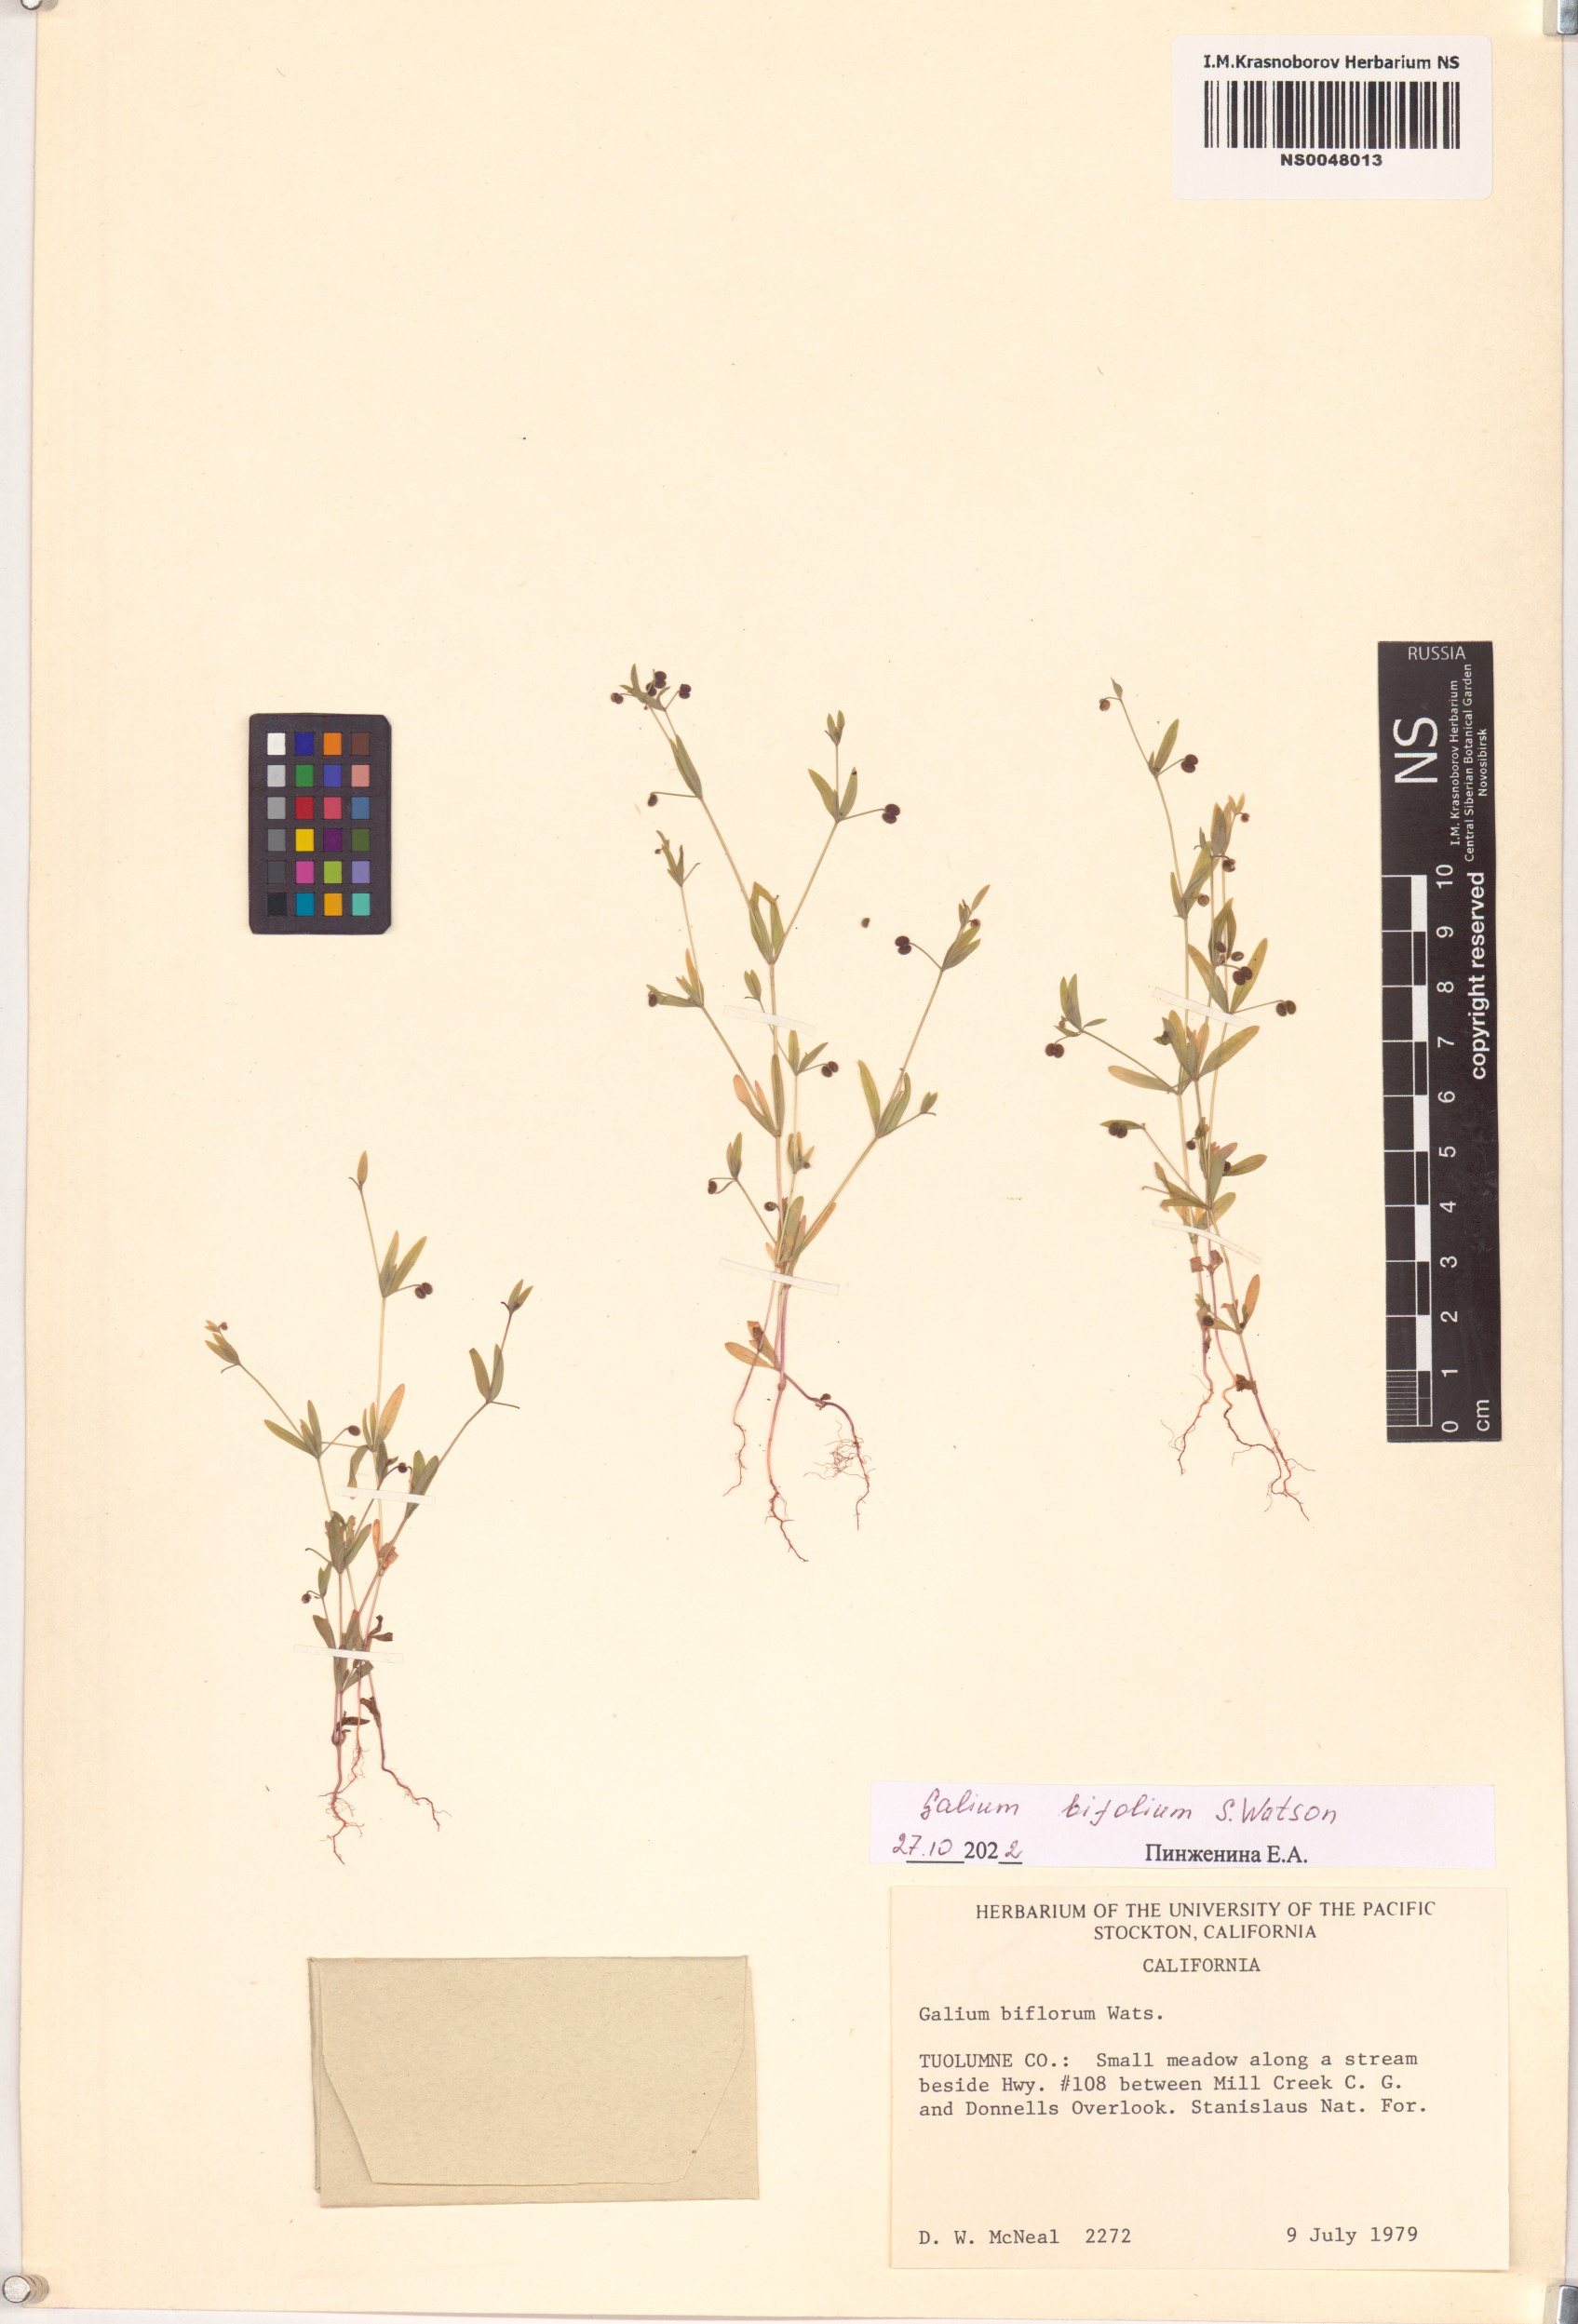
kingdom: Plantae
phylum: Tracheophyta
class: Magnoliopsida
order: Gentianales
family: Rubiaceae
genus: Galium
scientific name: Galium bifolium
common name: Low mountain bedstraw
